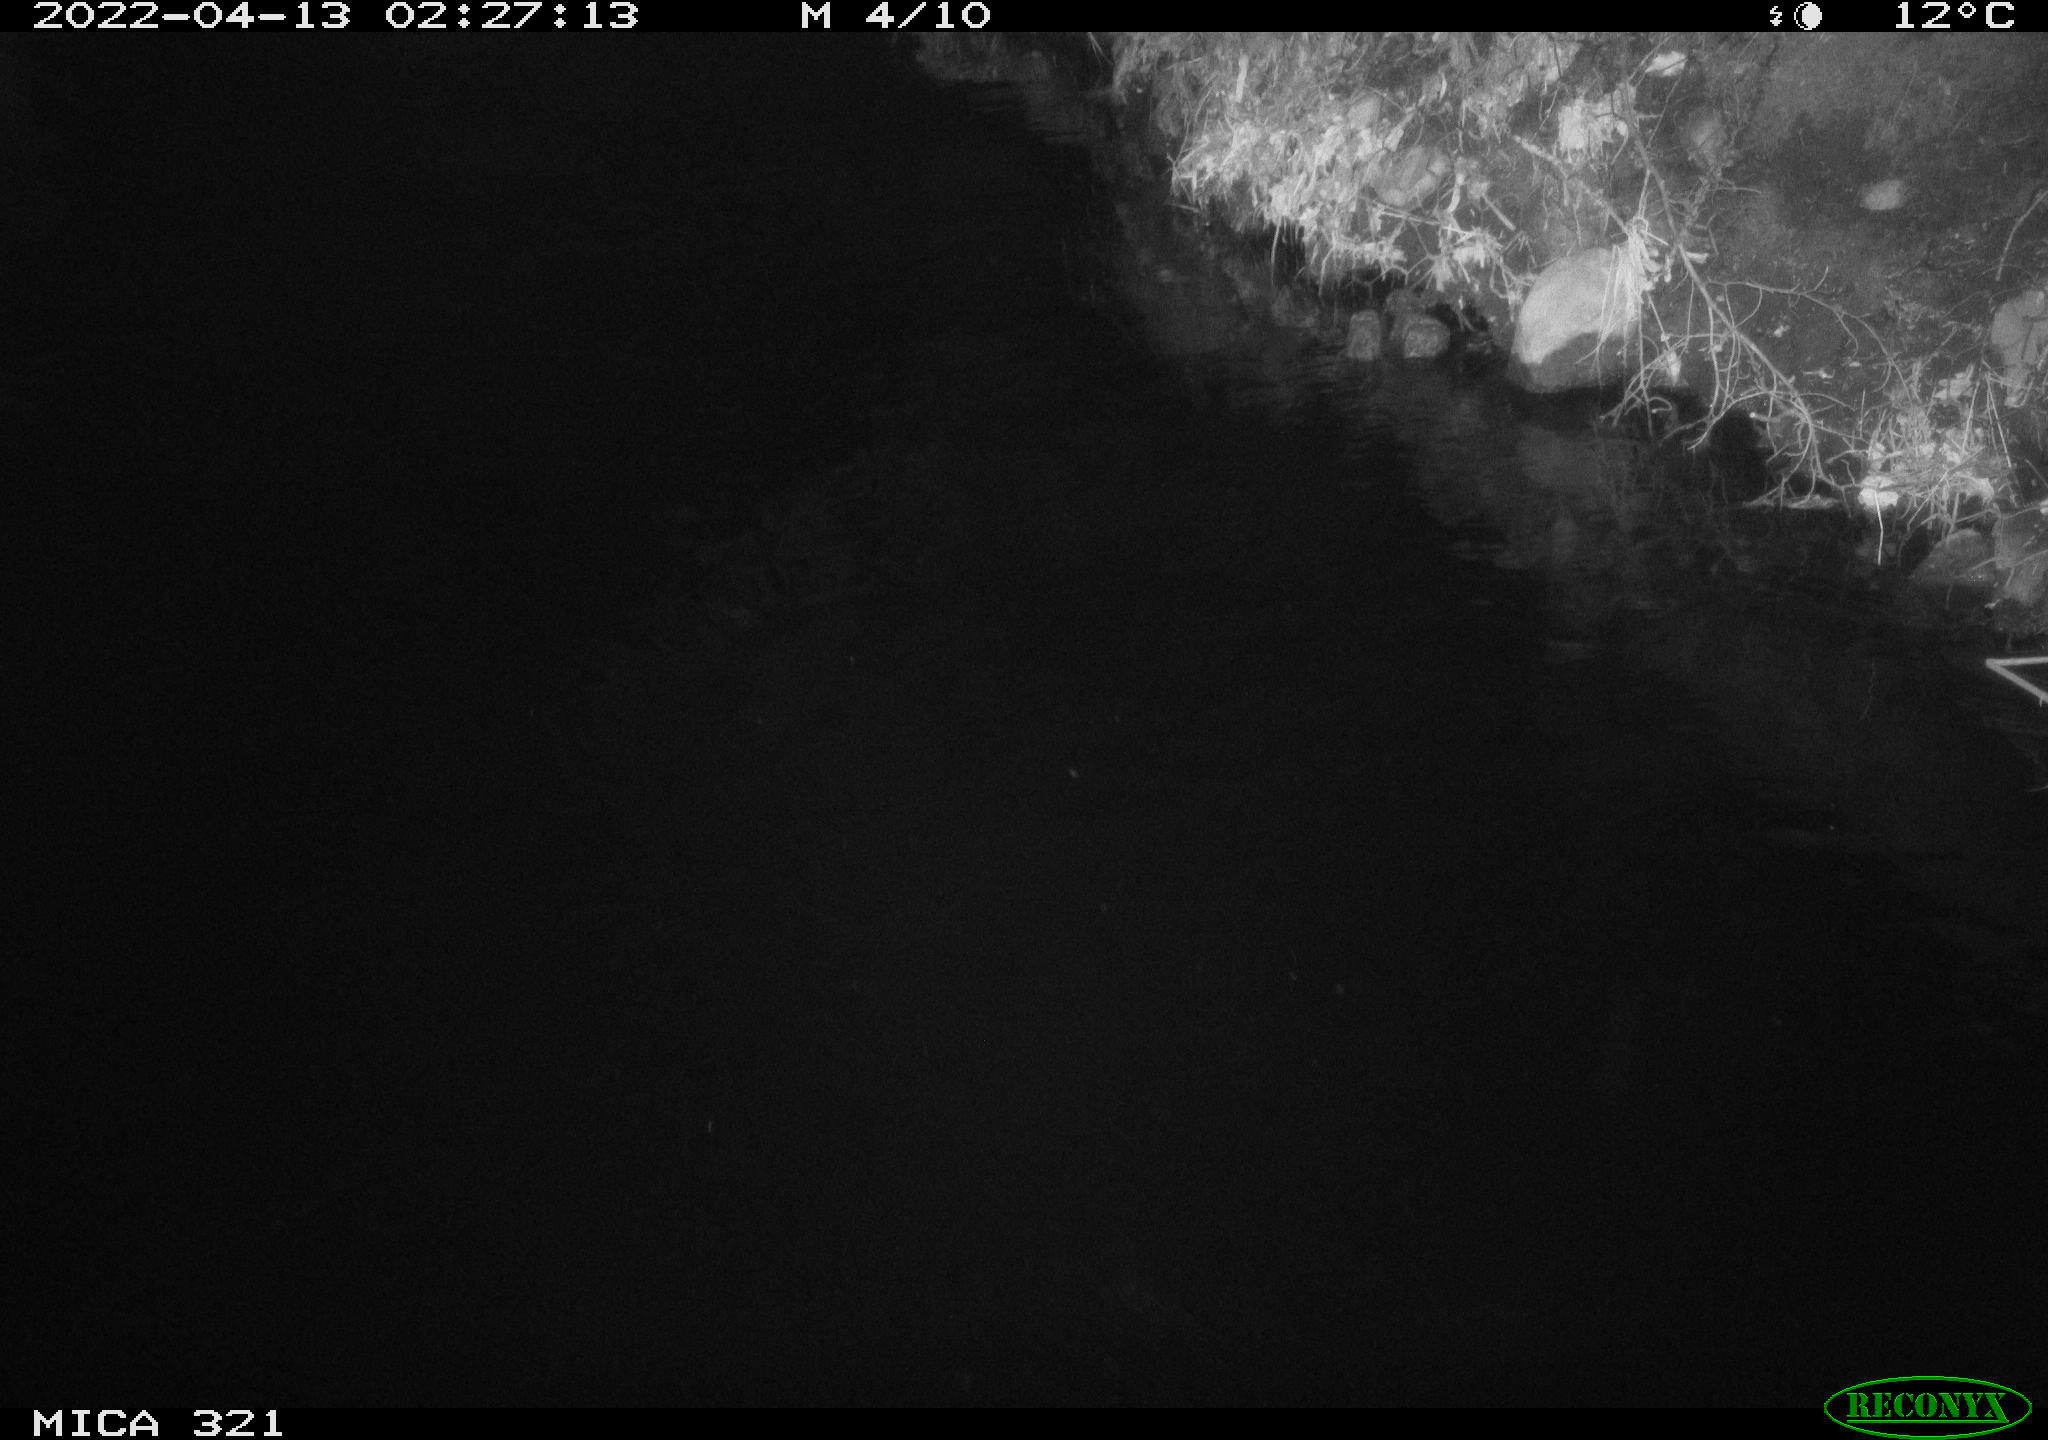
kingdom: Animalia
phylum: Chordata
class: Aves
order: Anseriformes
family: Anatidae
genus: Anas
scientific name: Anas platyrhynchos
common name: Mallard
